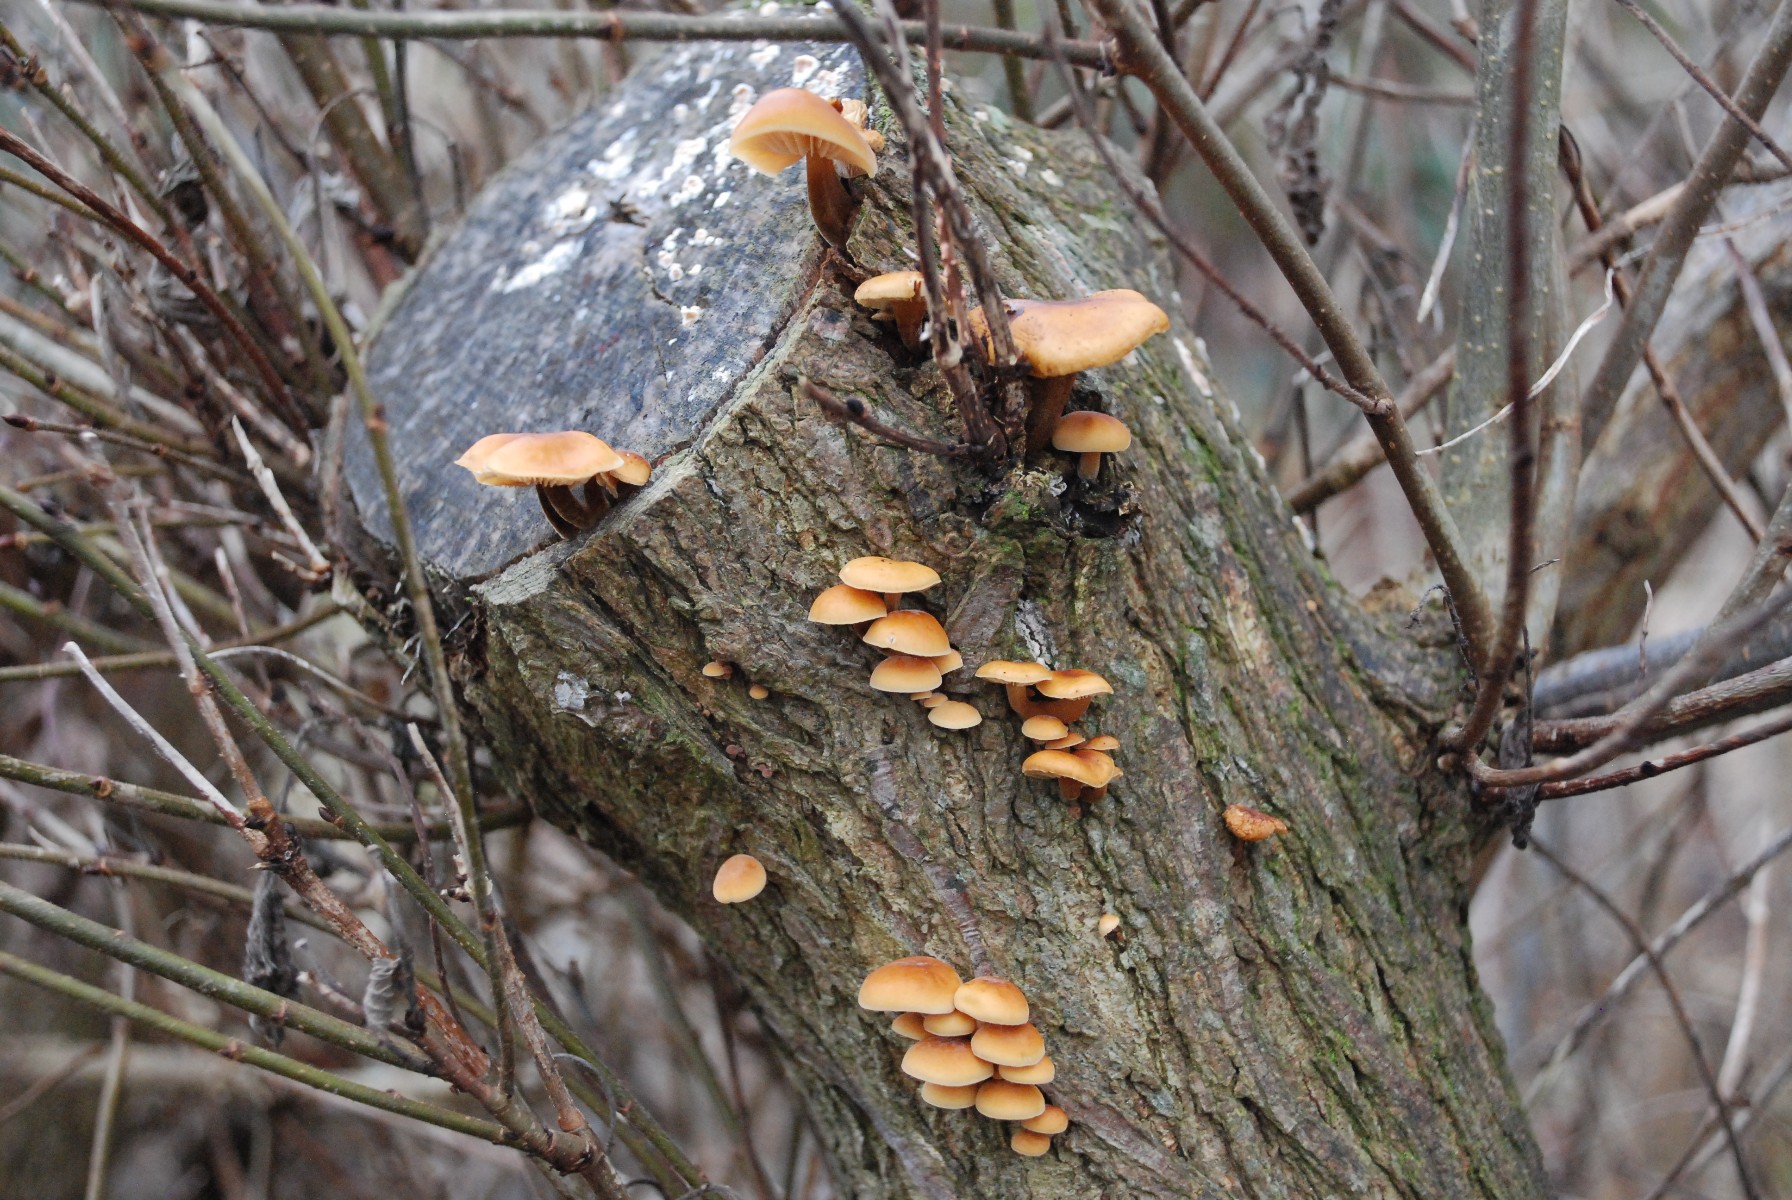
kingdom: Fungi
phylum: Basidiomycota
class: Agaricomycetes
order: Agaricales
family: Physalacriaceae
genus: Flammulina
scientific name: Flammulina velutipes
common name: gul fløjlsfod
